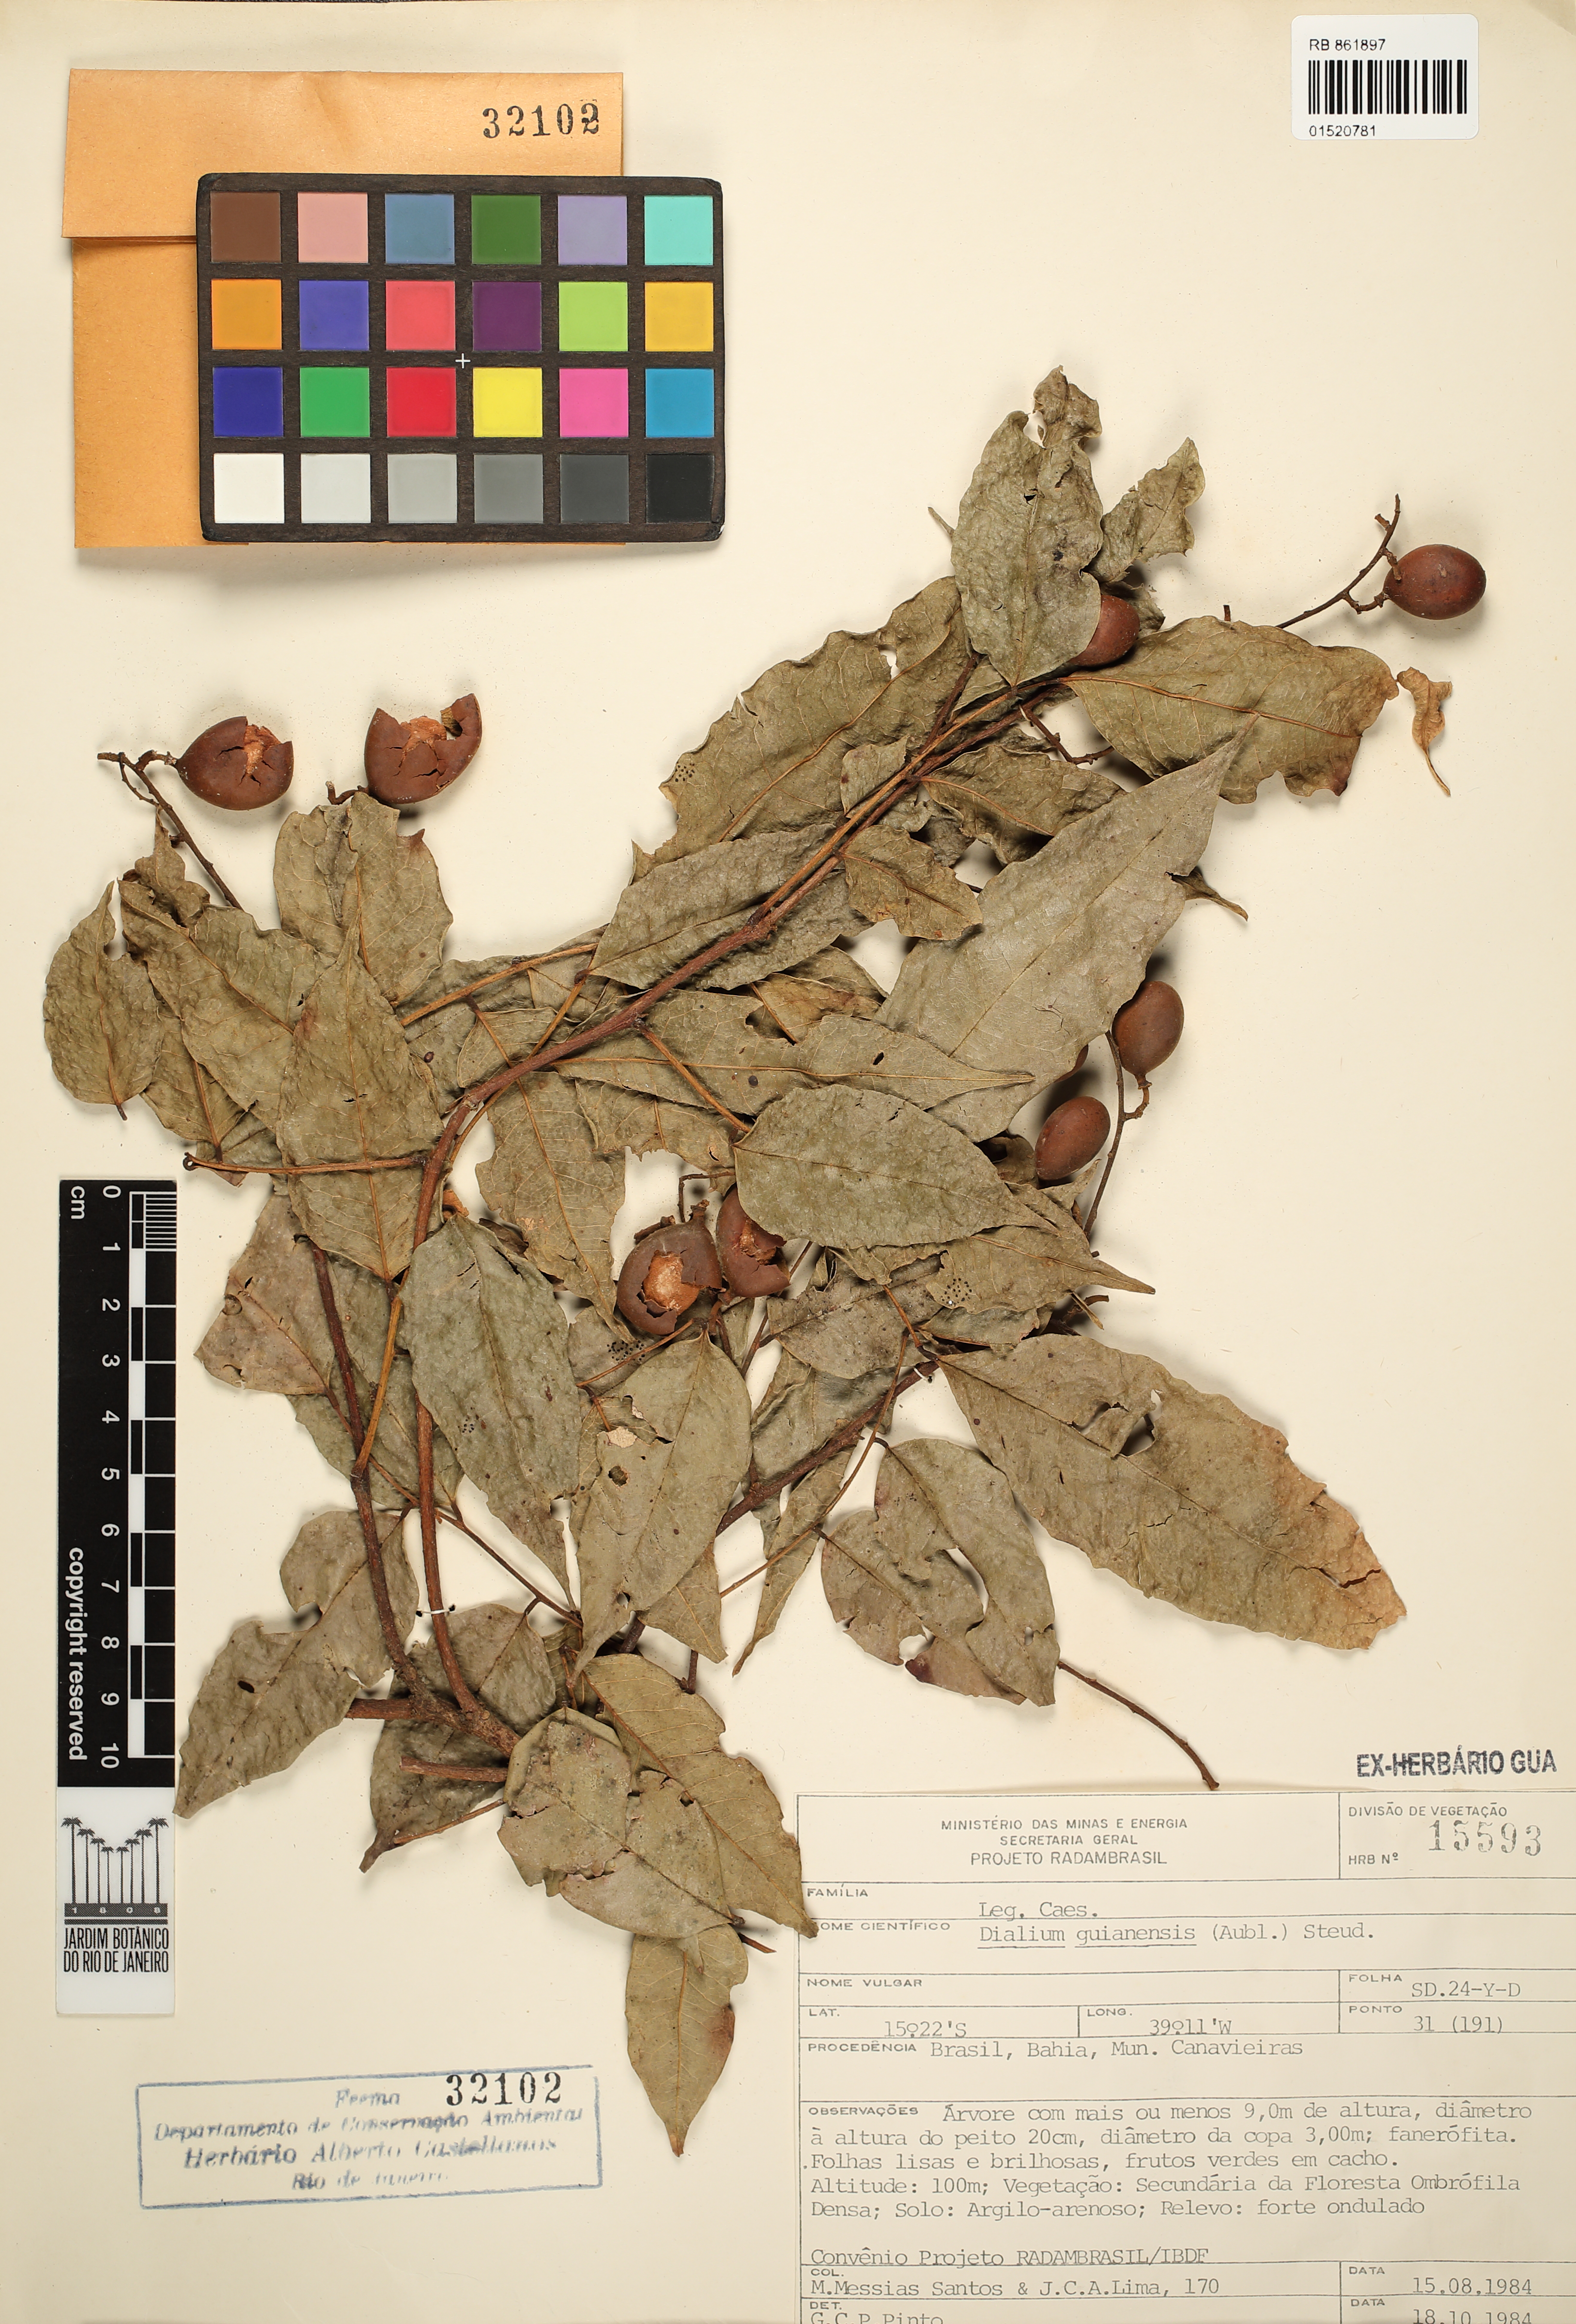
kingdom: Plantae
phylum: Tracheophyta
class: Magnoliopsida
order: Fabales
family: Fabaceae
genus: Dialium
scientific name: Dialium guianense
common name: Ironwood
